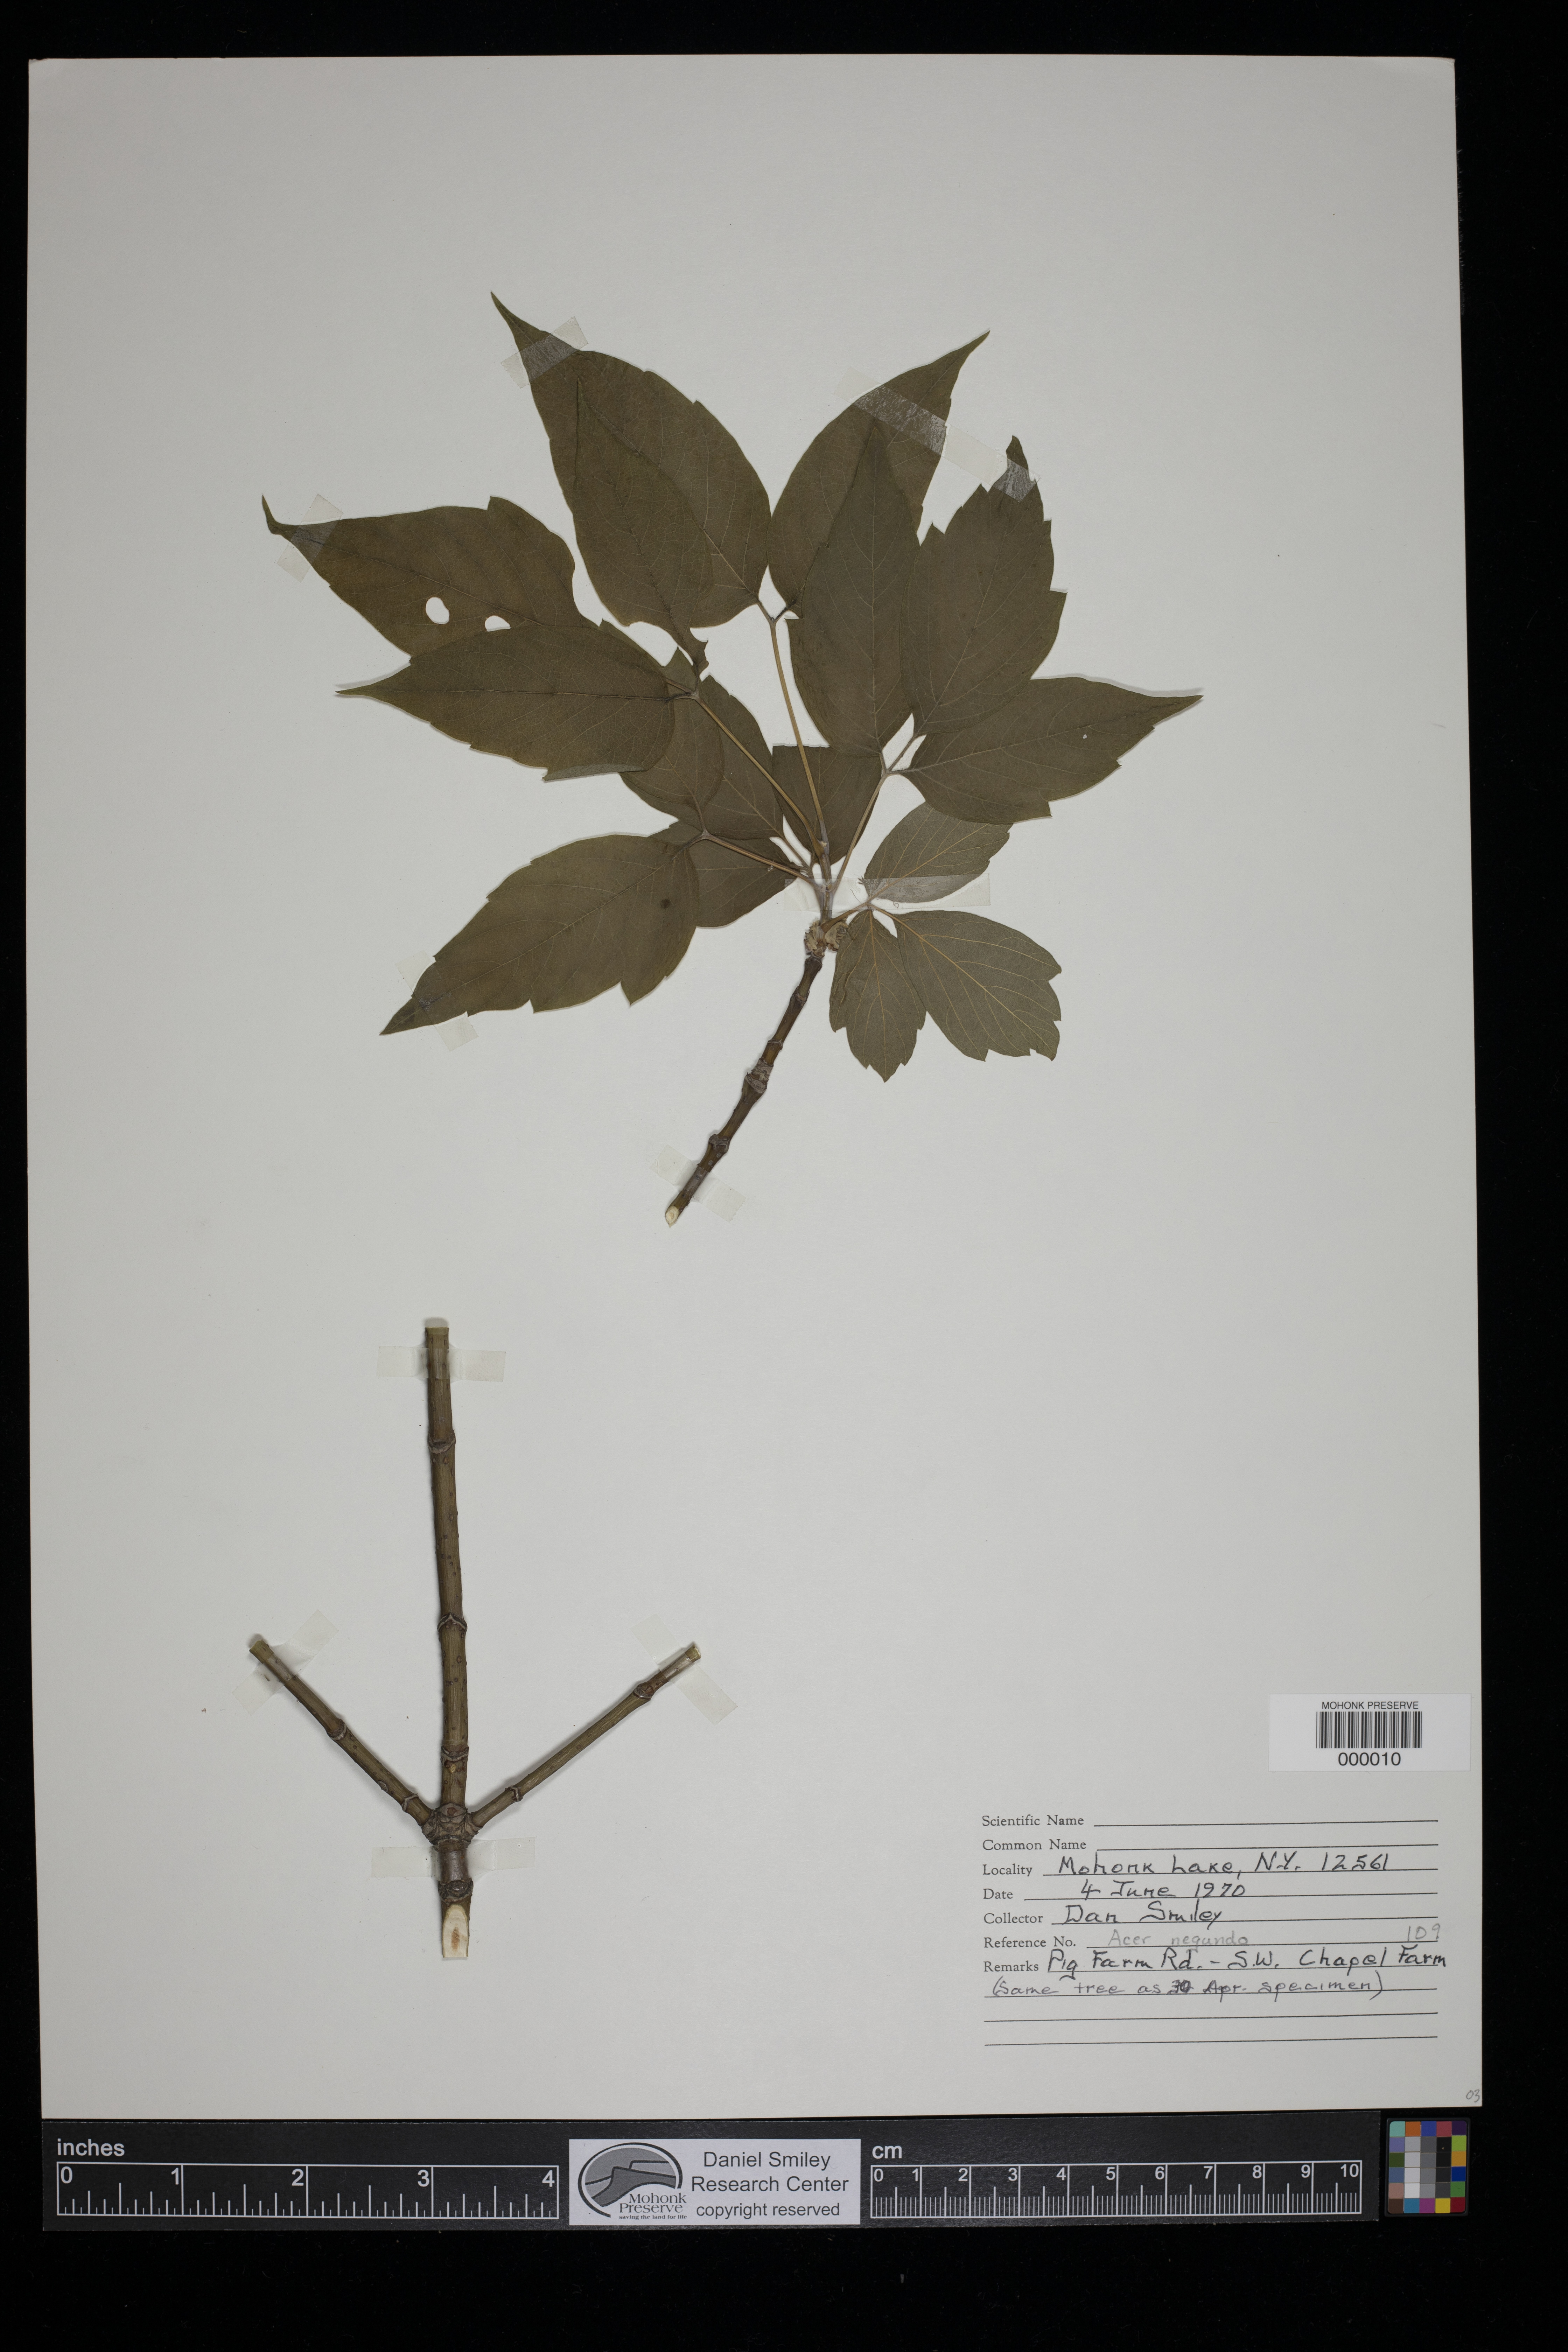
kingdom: Plantae
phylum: Tracheophyta
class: Magnoliopsida
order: Sapindales
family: Sapindaceae
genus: Acer
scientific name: Acer negundo
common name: Ashleaf maple
